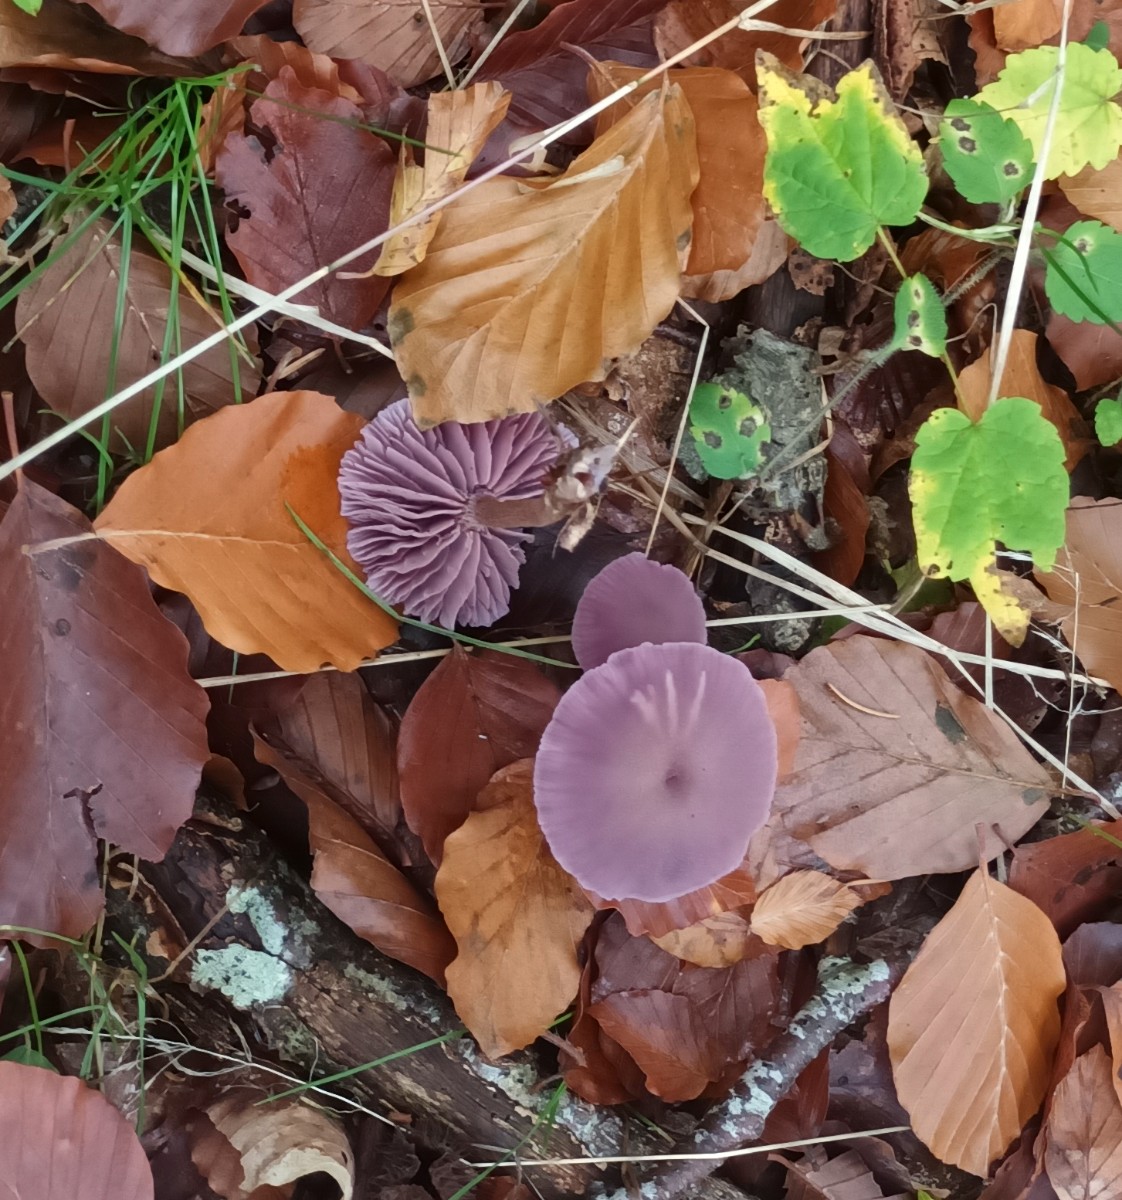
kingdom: Fungi
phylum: Basidiomycota
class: Agaricomycetes
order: Agaricales
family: Hydnangiaceae
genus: Laccaria
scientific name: Laccaria amethystina
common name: violet ametysthat
